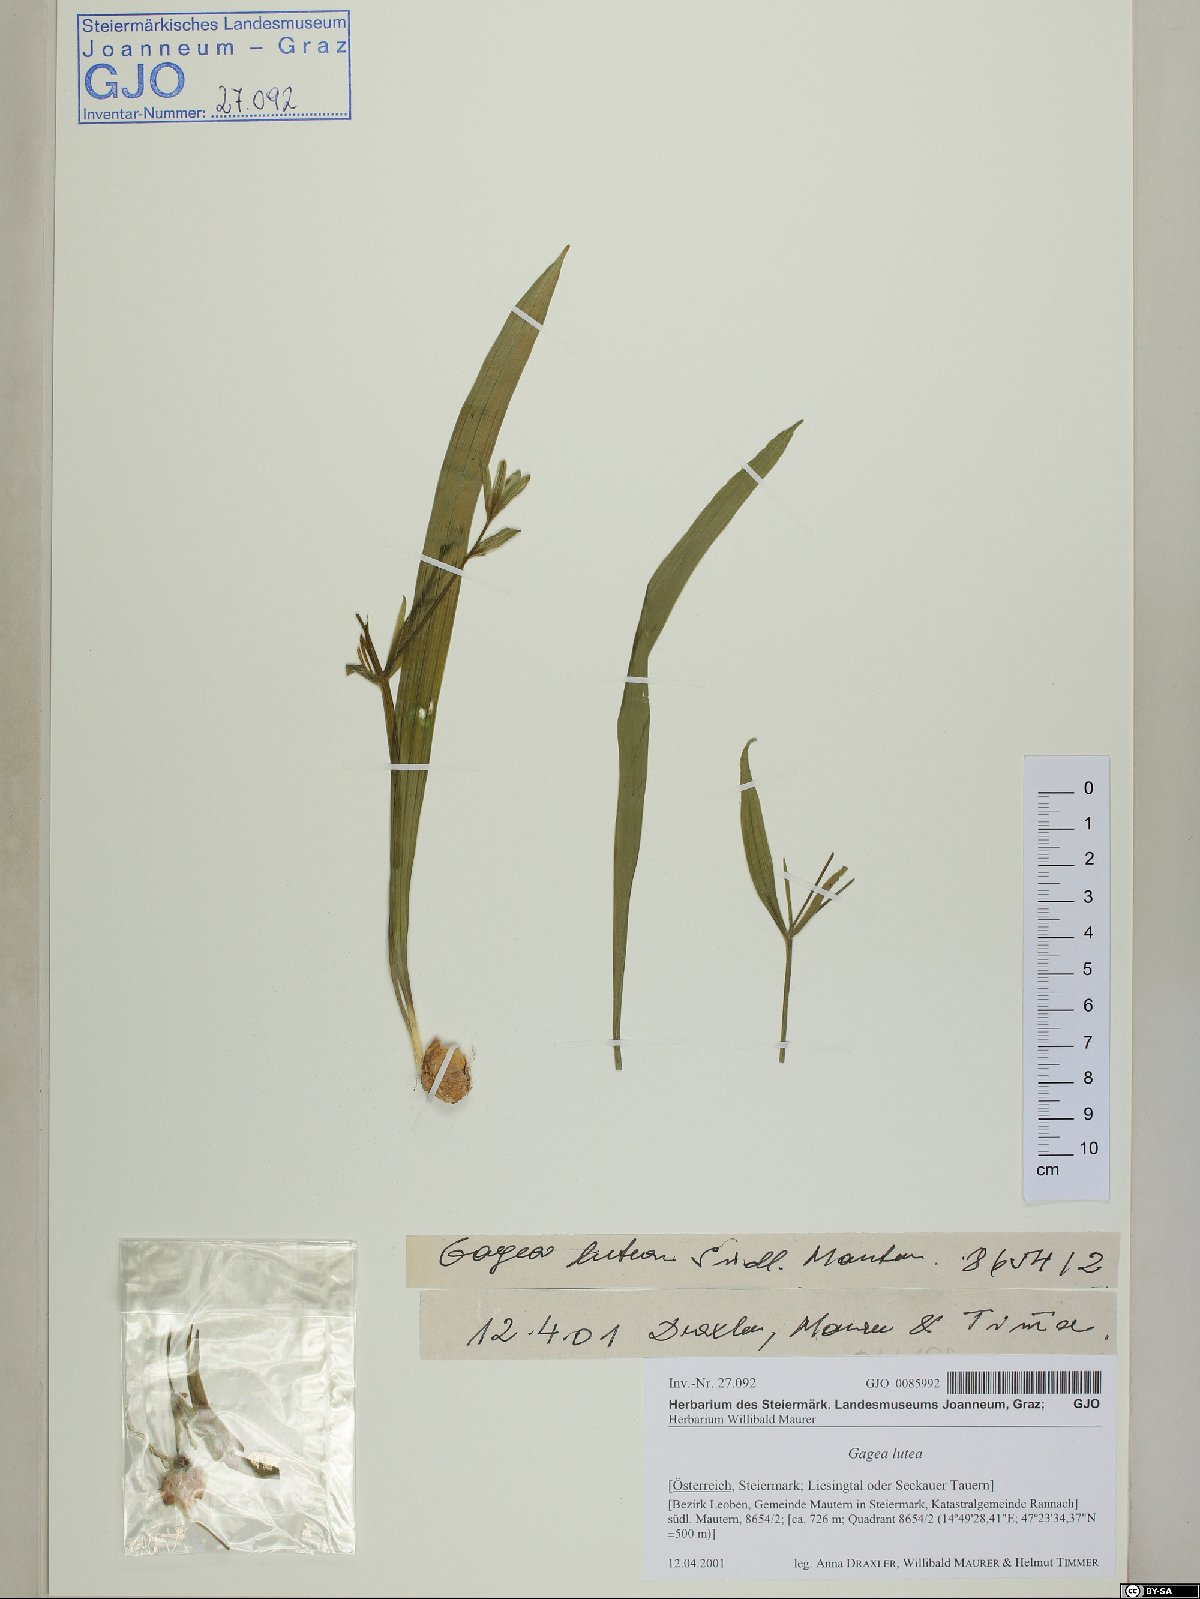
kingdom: Plantae
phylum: Tracheophyta
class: Liliopsida
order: Liliales
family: Liliaceae
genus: Gagea
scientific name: Gagea lutea
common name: Yellow star-of-bethlehem
